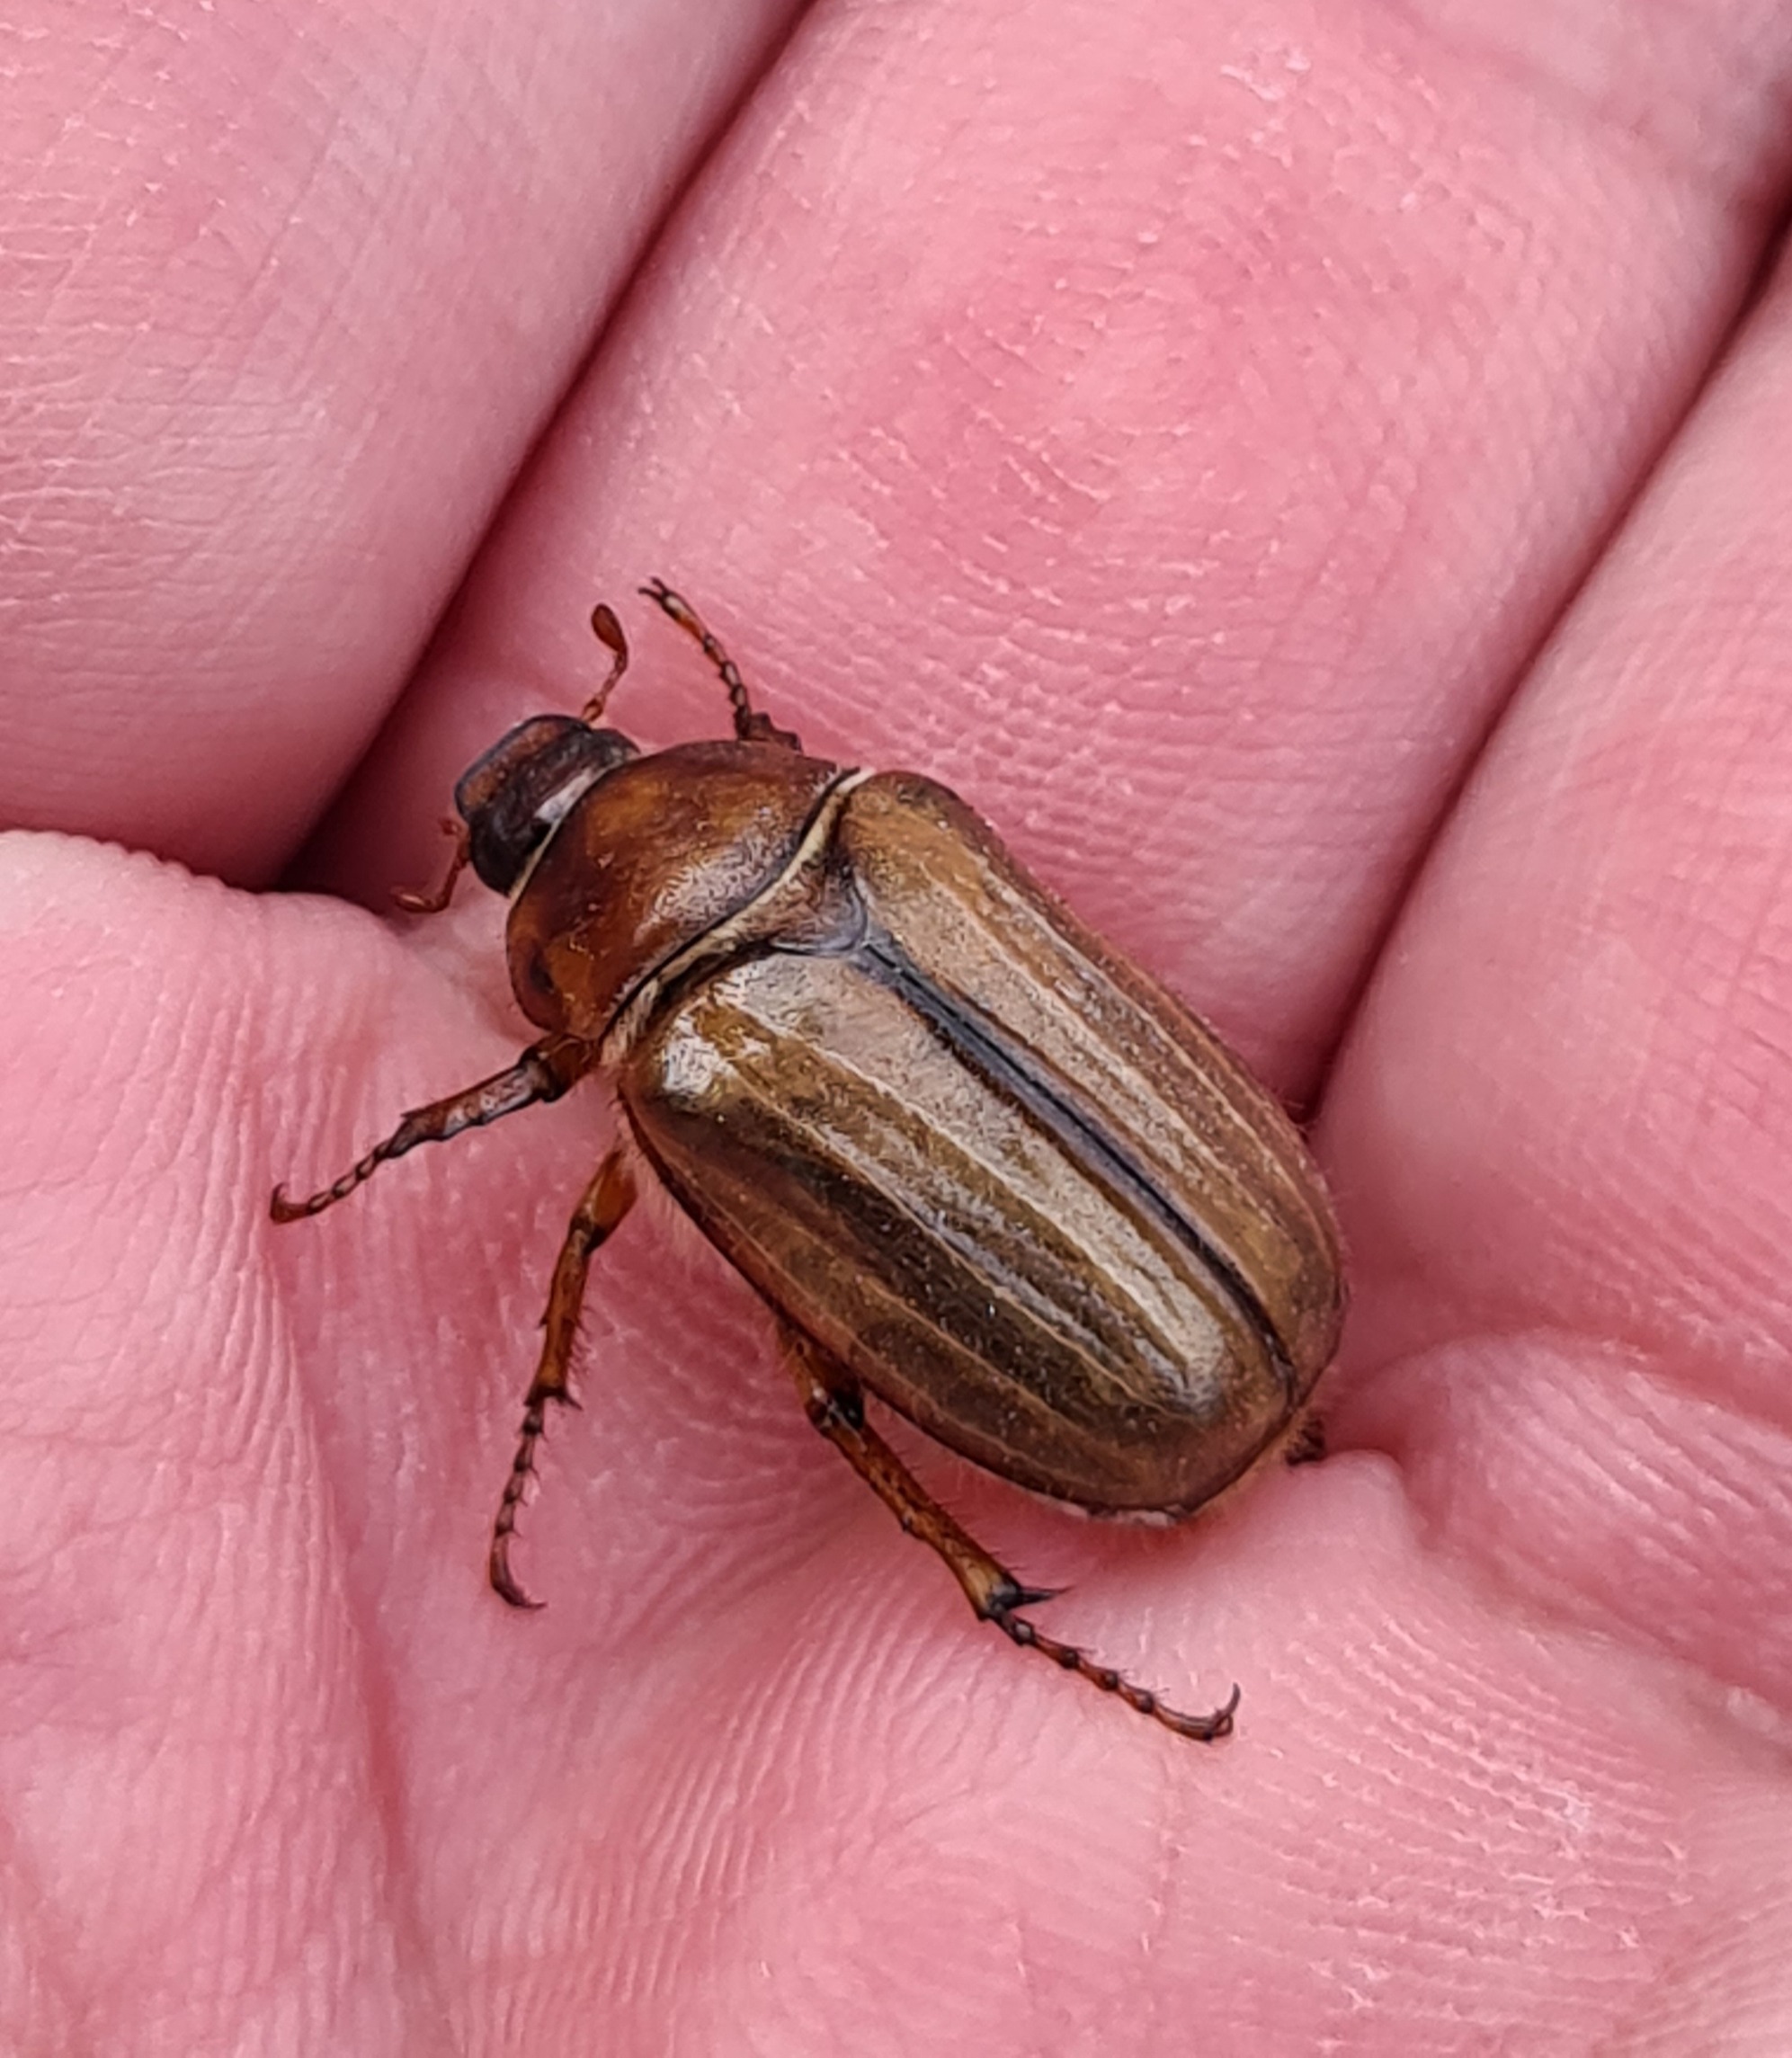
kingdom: Animalia
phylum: Arthropoda
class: Insecta
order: Coleoptera
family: Scarabaeidae
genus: Amphimallon
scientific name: Amphimallon solstitiale
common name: Sankthansoldenborre
